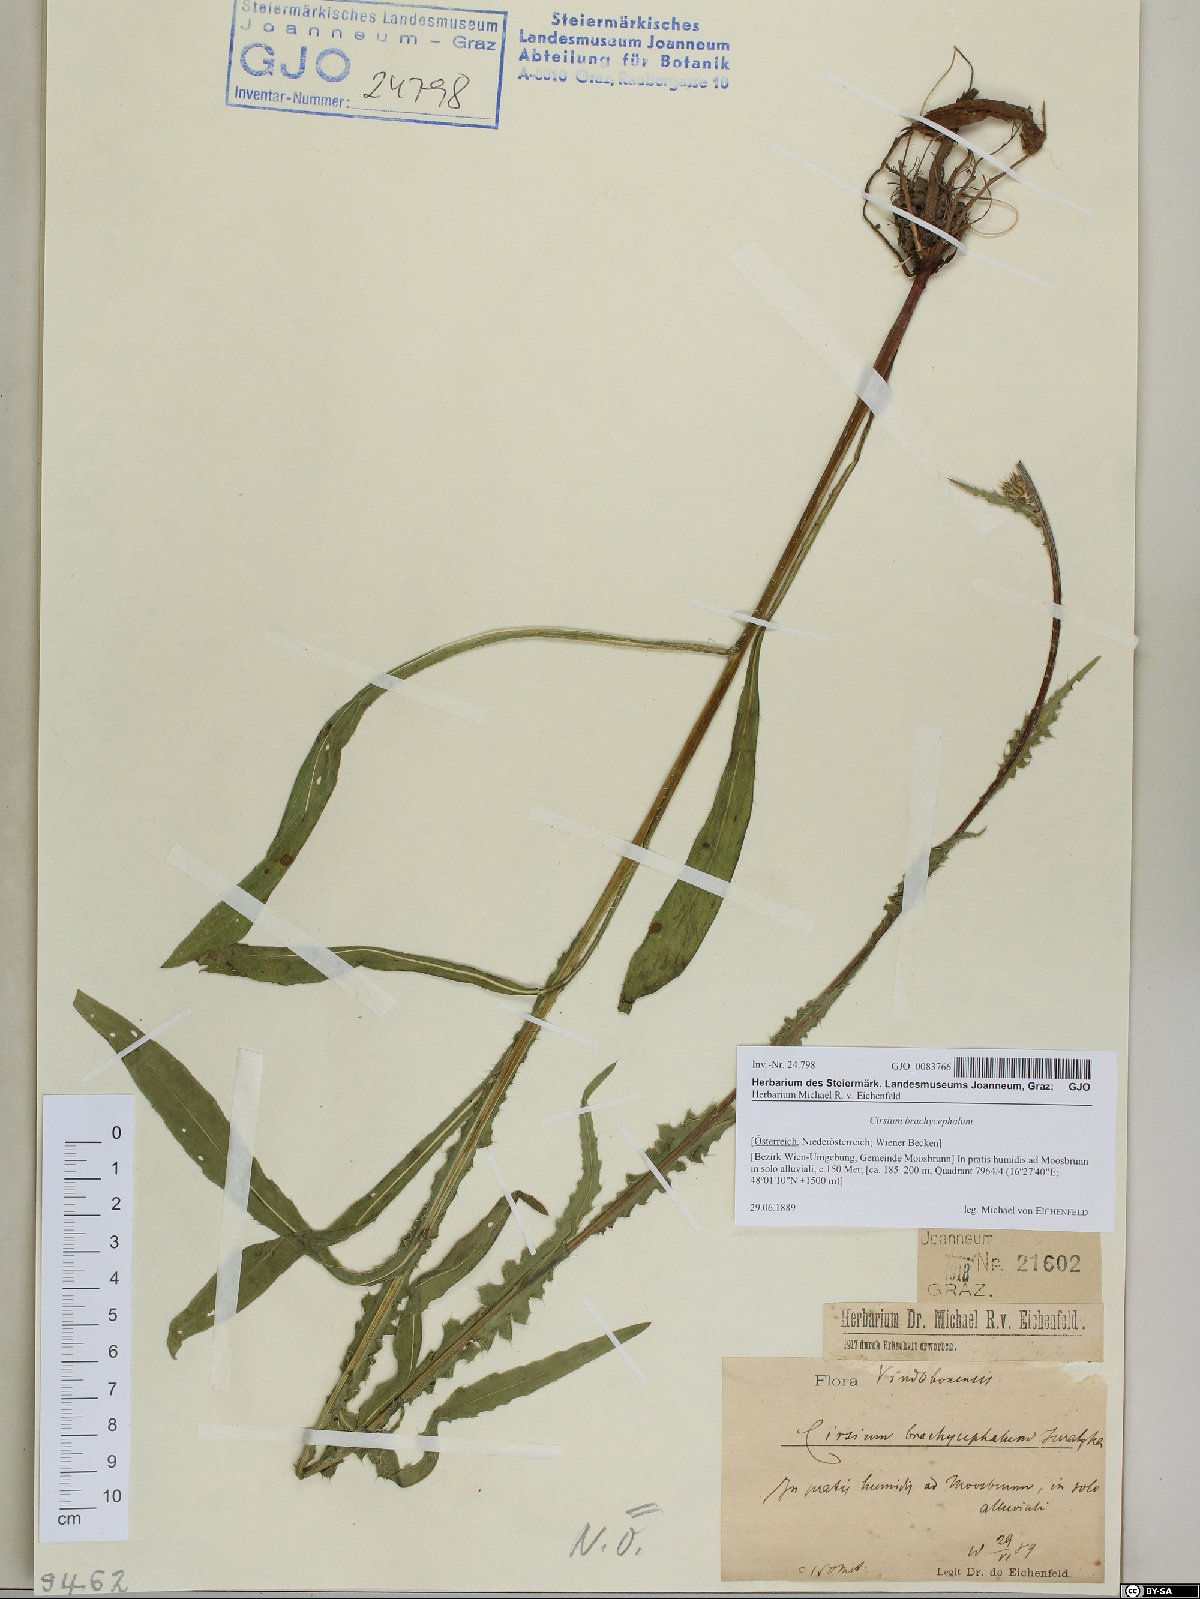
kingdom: Plantae
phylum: Tracheophyta
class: Magnoliopsida
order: Asterales
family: Asteraceae
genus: Cirsium
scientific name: Cirsium brachycephalum
